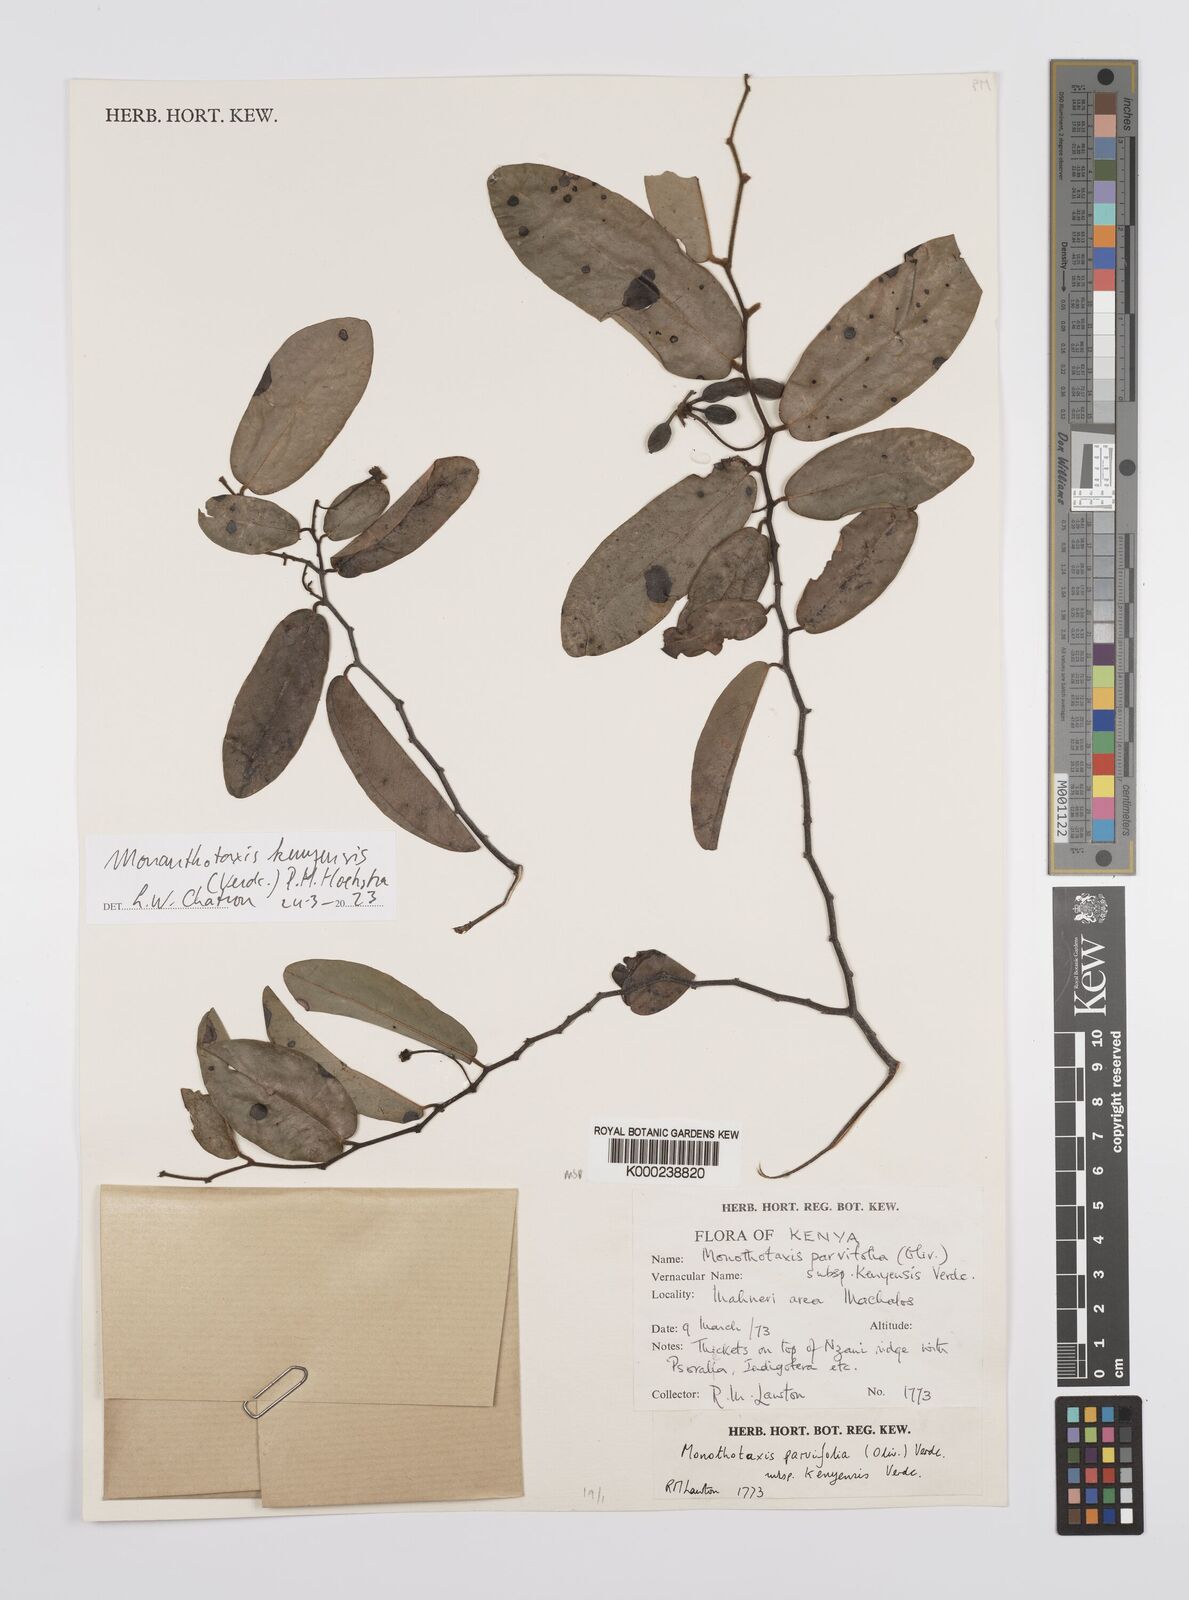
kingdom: Plantae
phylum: Tracheophyta
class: Magnoliopsida
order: Magnoliales
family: Annonaceae
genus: Monanthotaxis
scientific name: Monanthotaxis parvifolia
